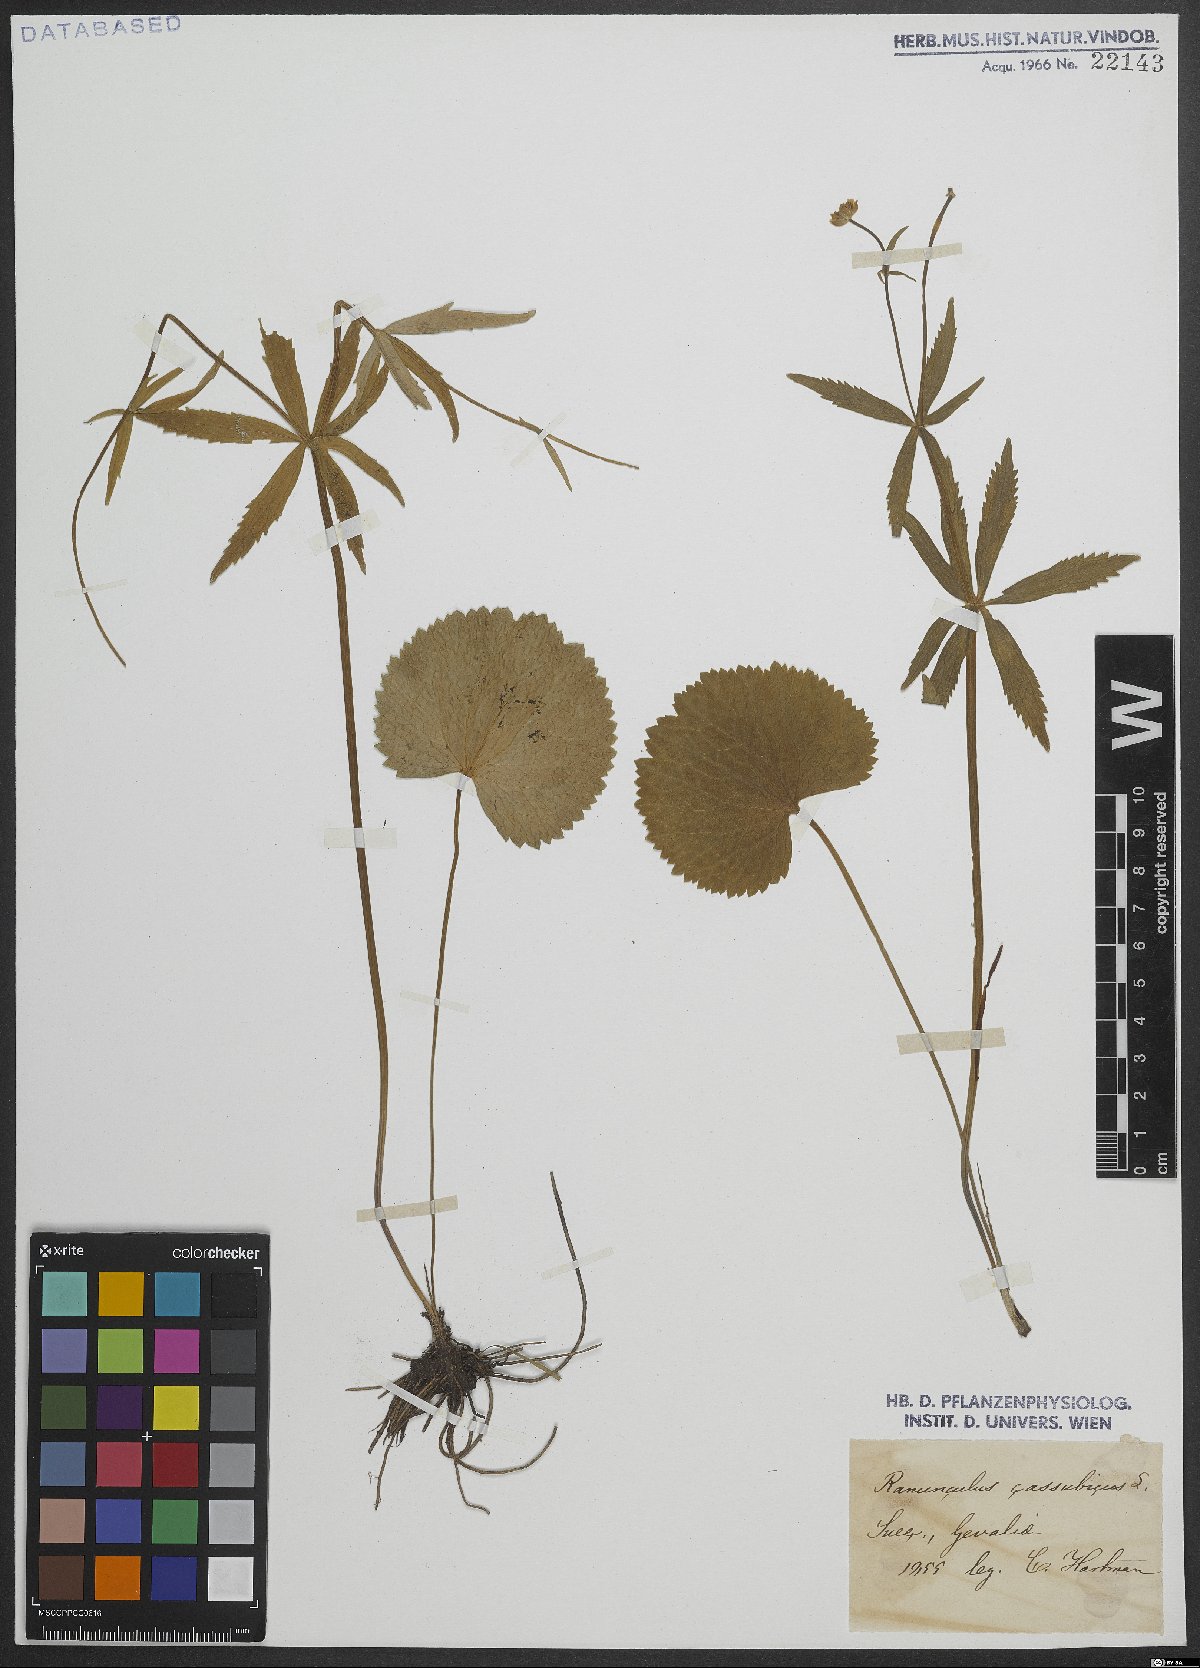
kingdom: Plantae
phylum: Tracheophyta
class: Magnoliopsida
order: Ranunculales
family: Ranunculaceae
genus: Ranunculus
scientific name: Ranunculus cassubicus
